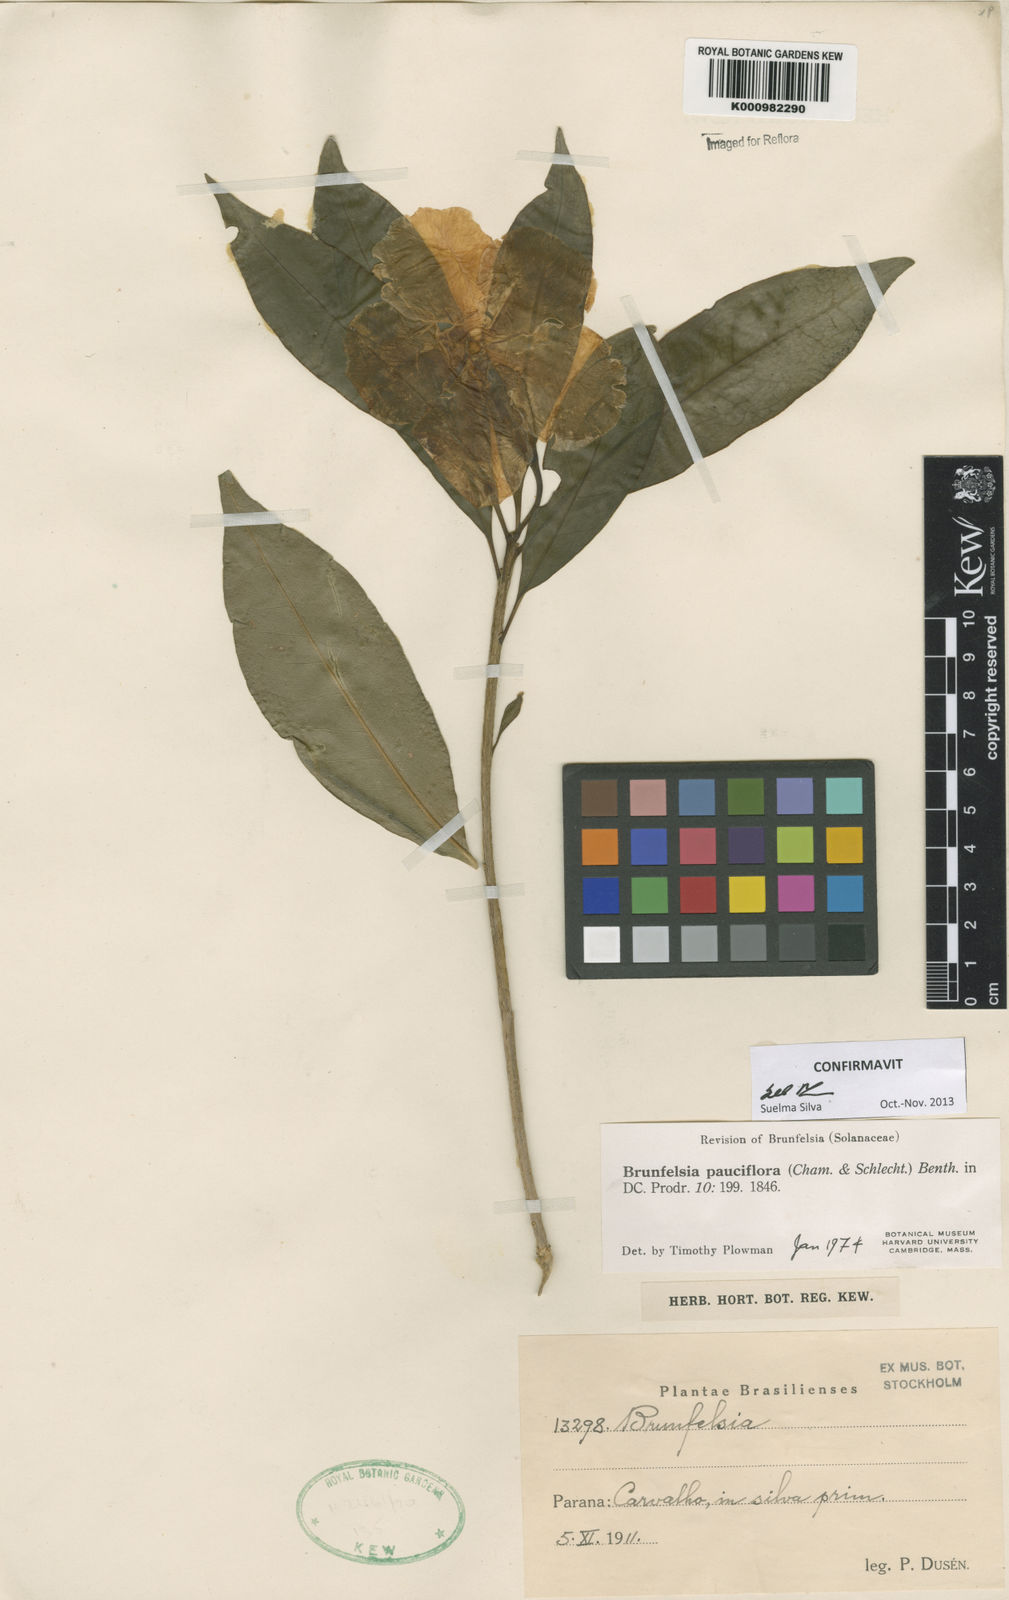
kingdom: Plantae
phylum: Tracheophyta
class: Magnoliopsida
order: Solanales
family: Solanaceae
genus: Brunfelsia
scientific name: Brunfelsia pauciflora
